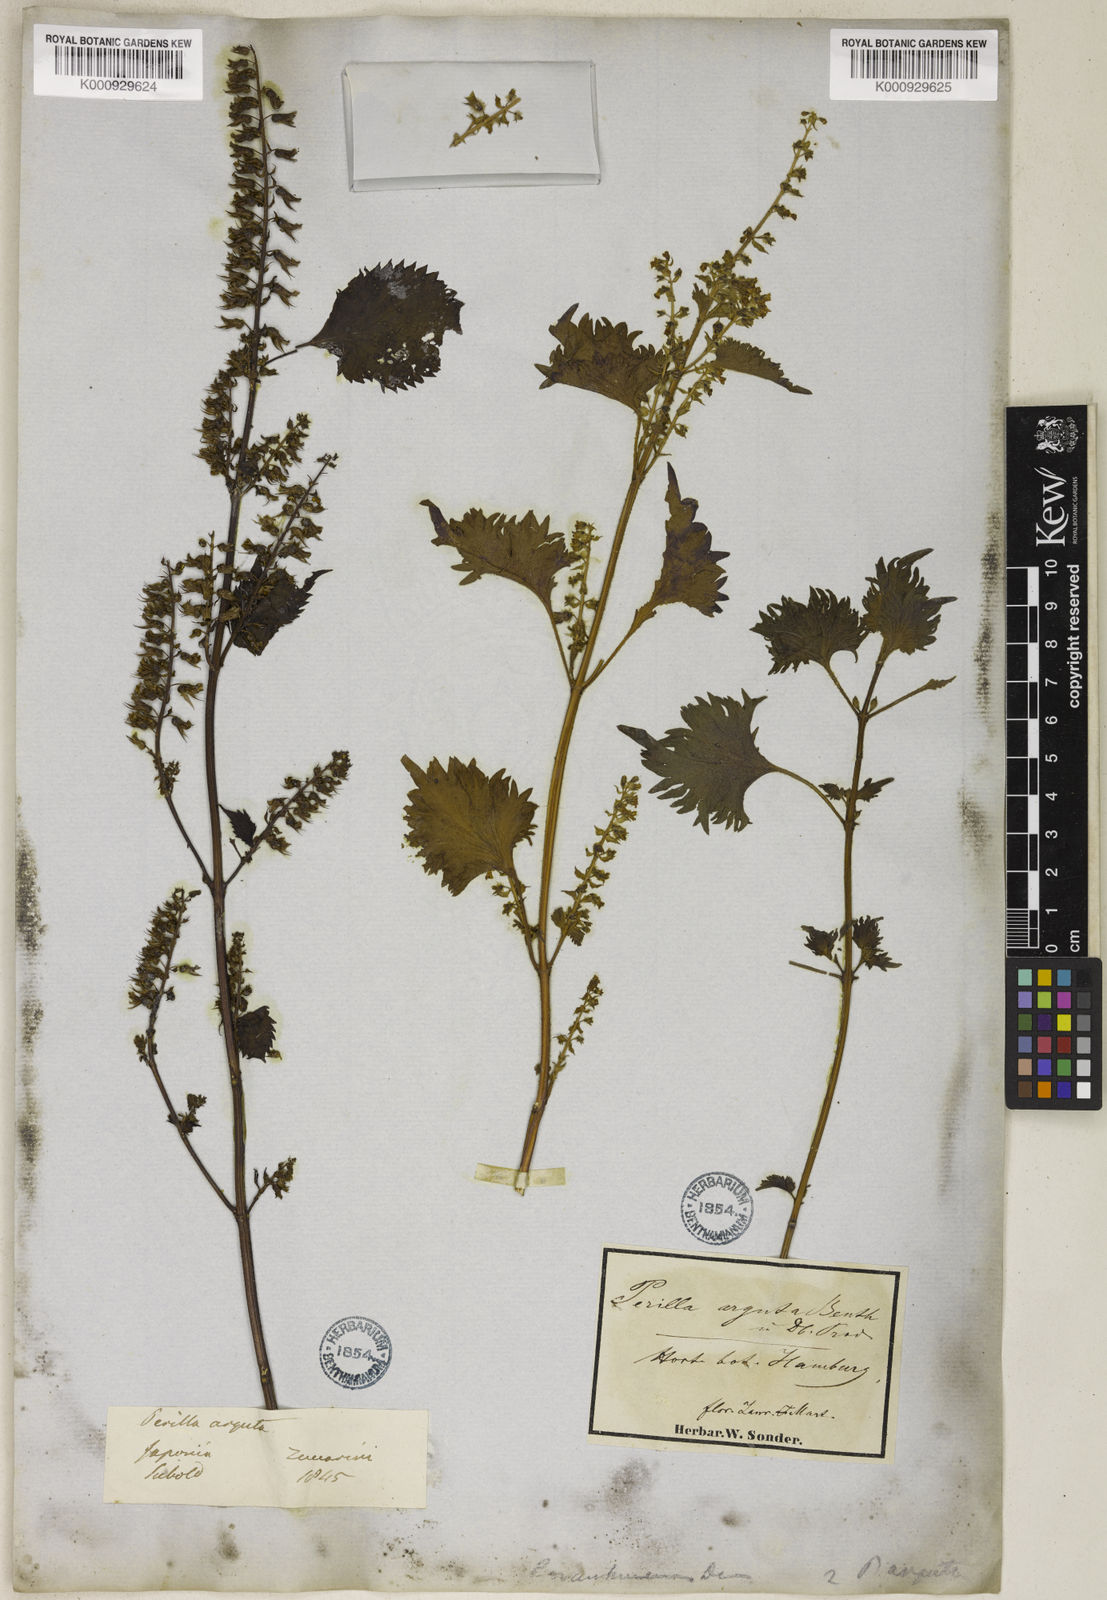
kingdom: Plantae
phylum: Tracheophyta
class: Magnoliopsida
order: Lamiales
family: Lamiaceae
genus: Perilla
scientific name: Perilla frutescens
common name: Perilla
